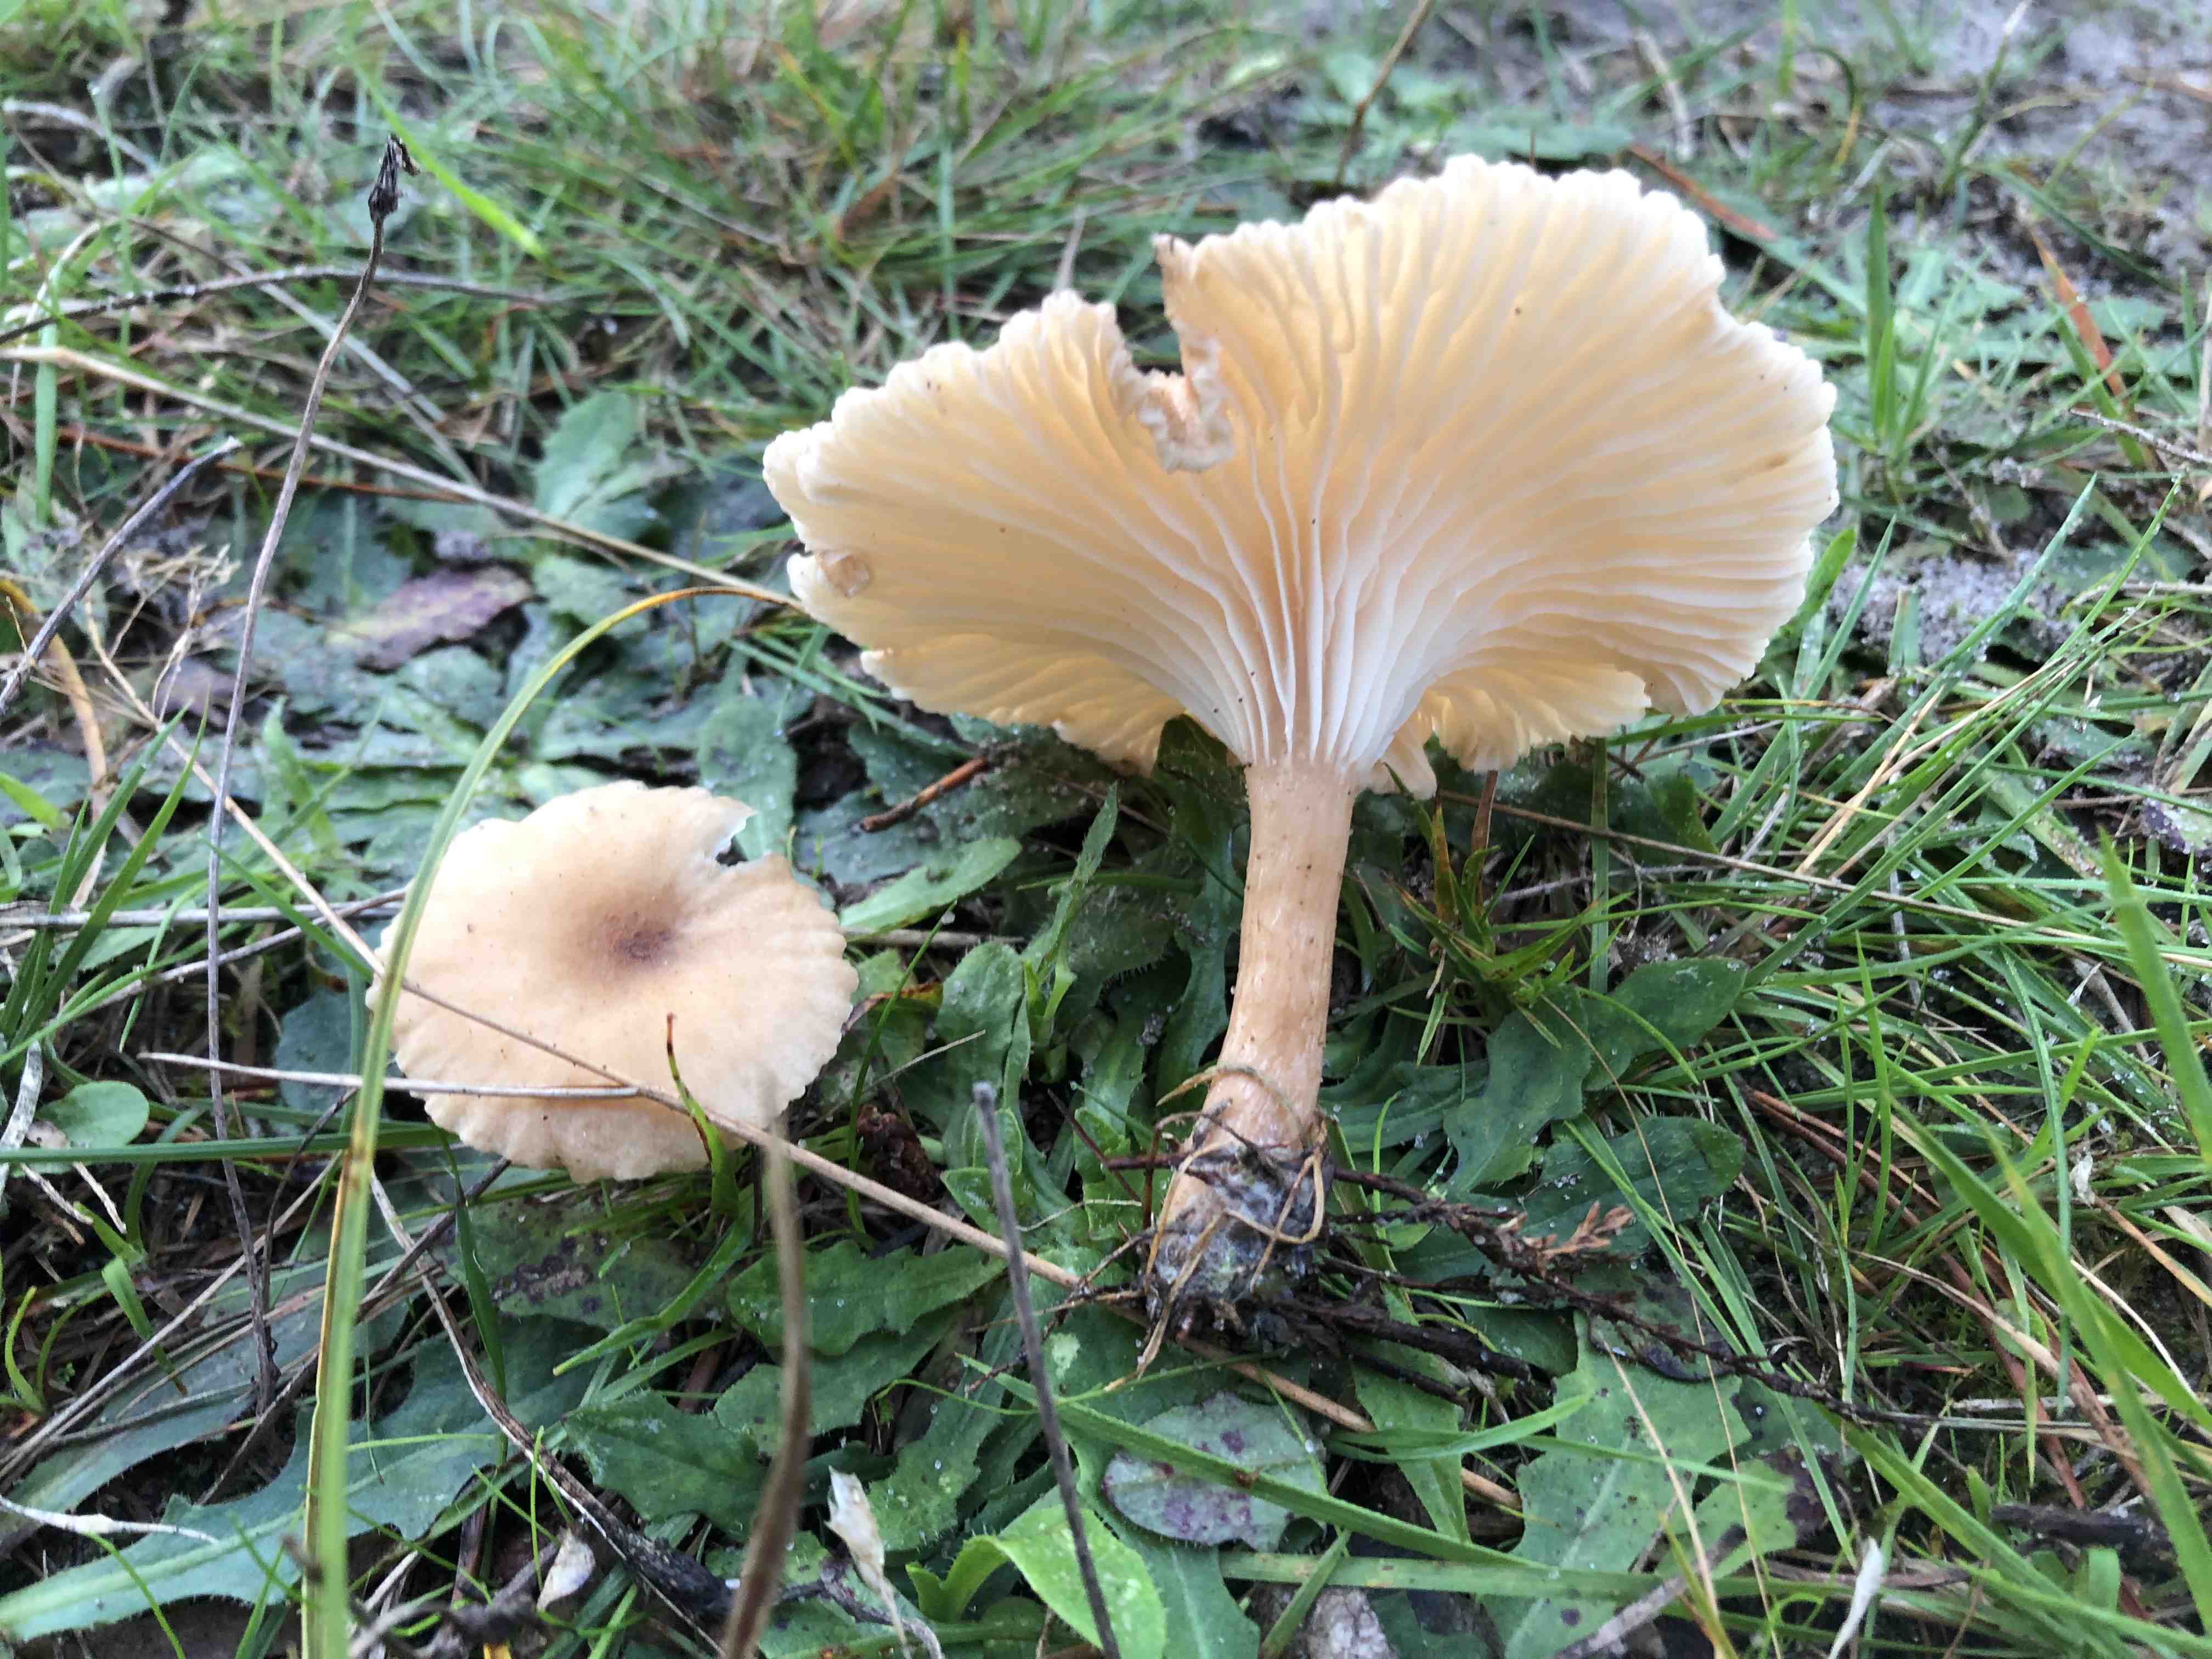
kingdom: Fungi
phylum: Basidiomycota
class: Agaricomycetes
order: Agaricales
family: Tricholomataceae
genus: Infundibulicybe
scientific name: Infundibulicybe squamulosa
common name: småskællet tragthat
